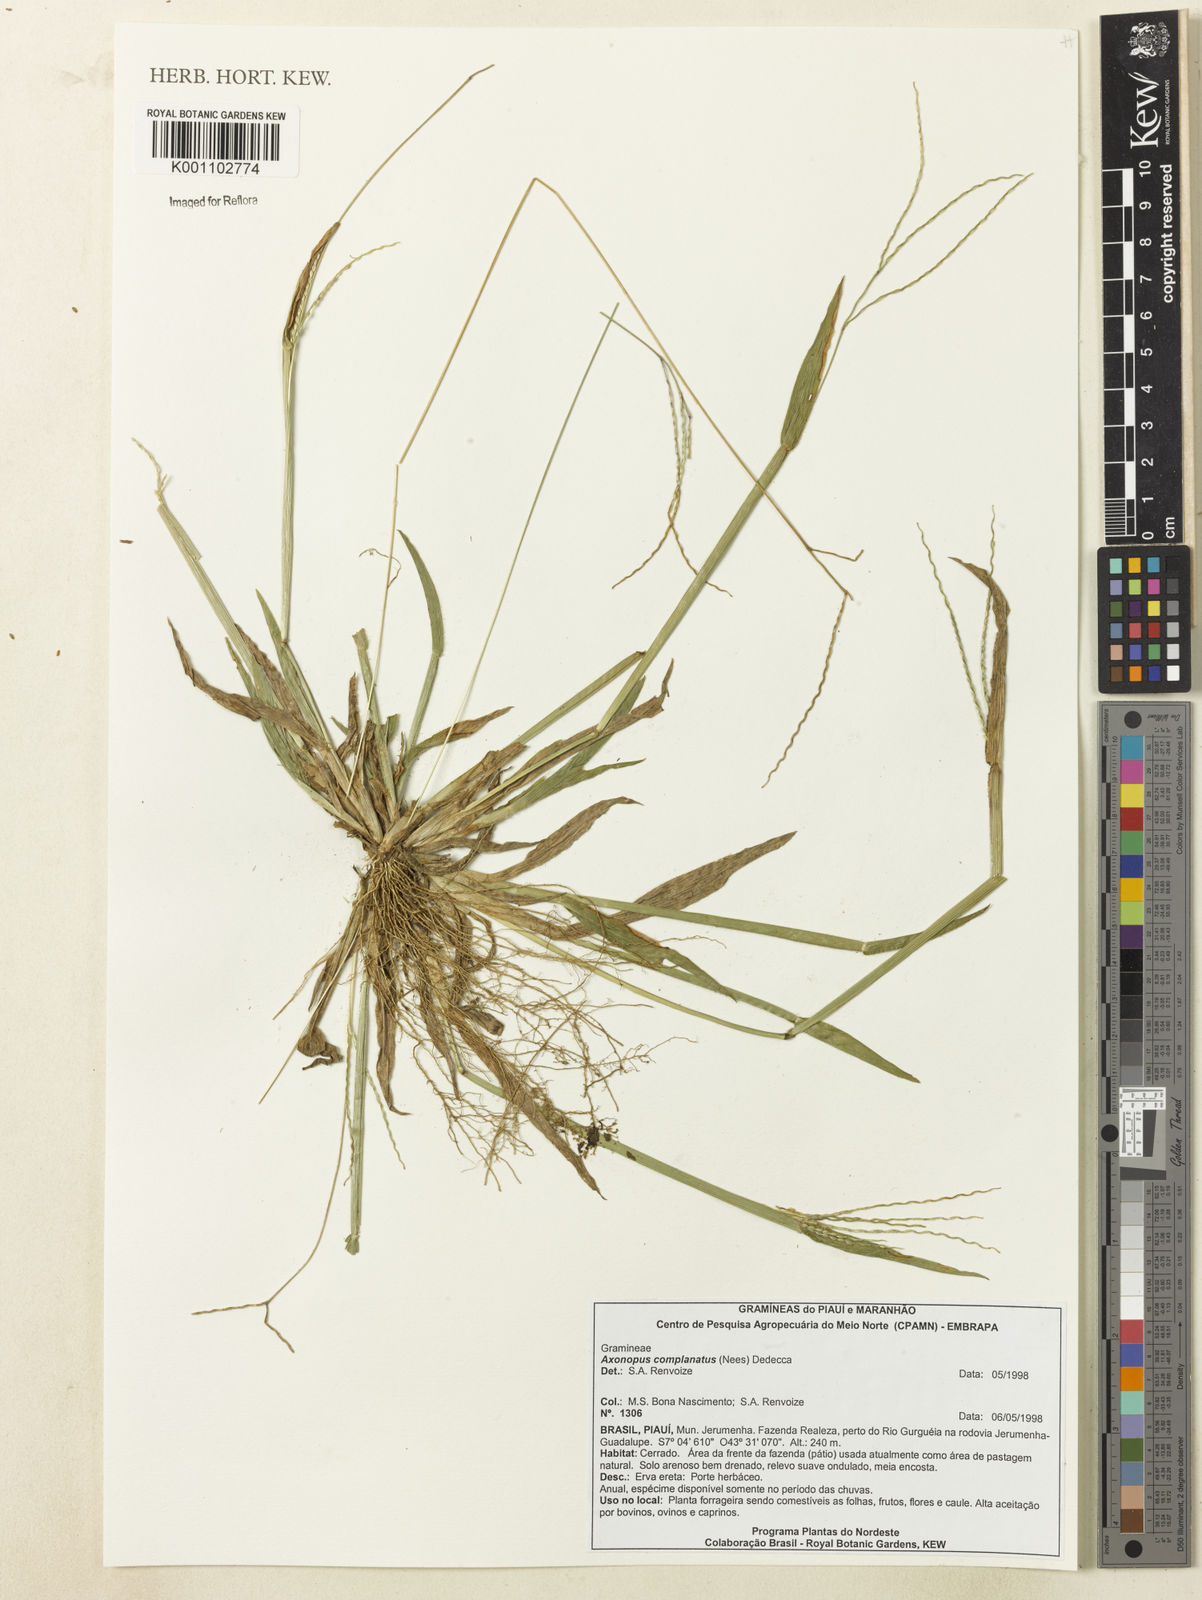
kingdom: Plantae
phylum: Tracheophyta
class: Liliopsida
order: Poales
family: Poaceae
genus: Axonopus
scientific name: Axonopus complanatus
